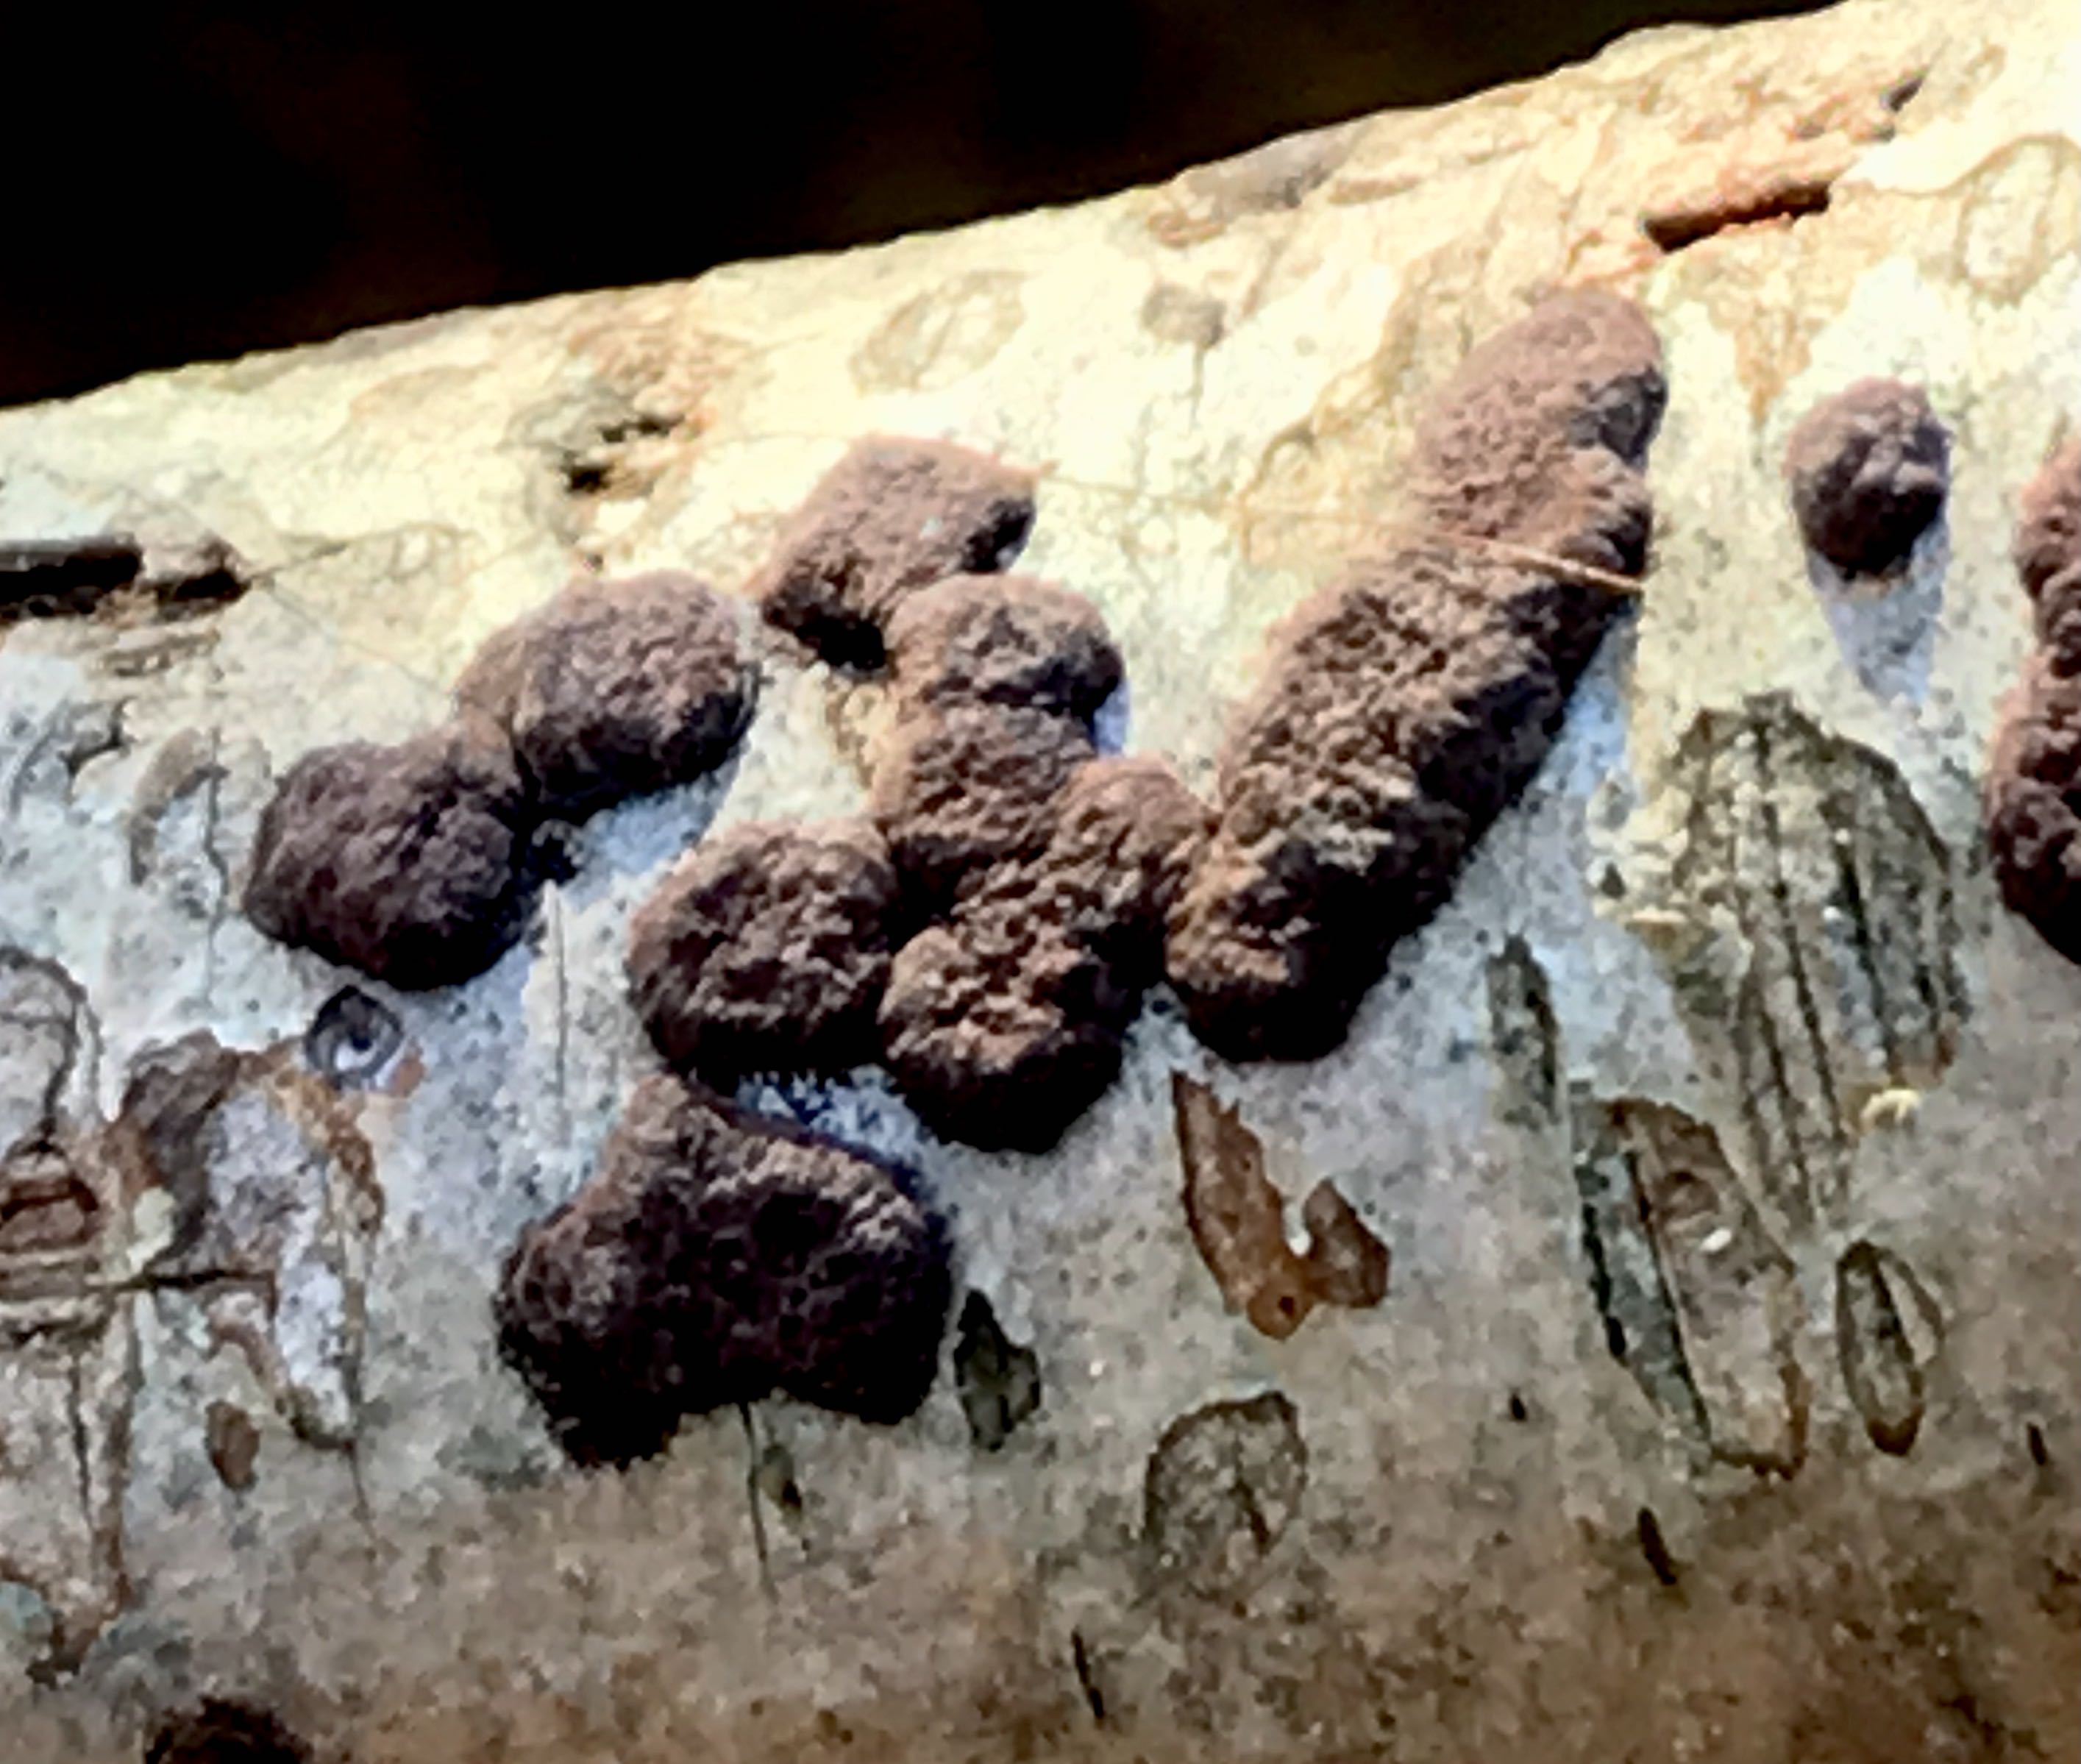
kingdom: Fungi
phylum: Ascomycota
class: Sordariomycetes
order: Xylariales
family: Hypoxylaceae
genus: Hypoxylon
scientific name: Hypoxylon fuscum
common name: kegleformet kulbær
